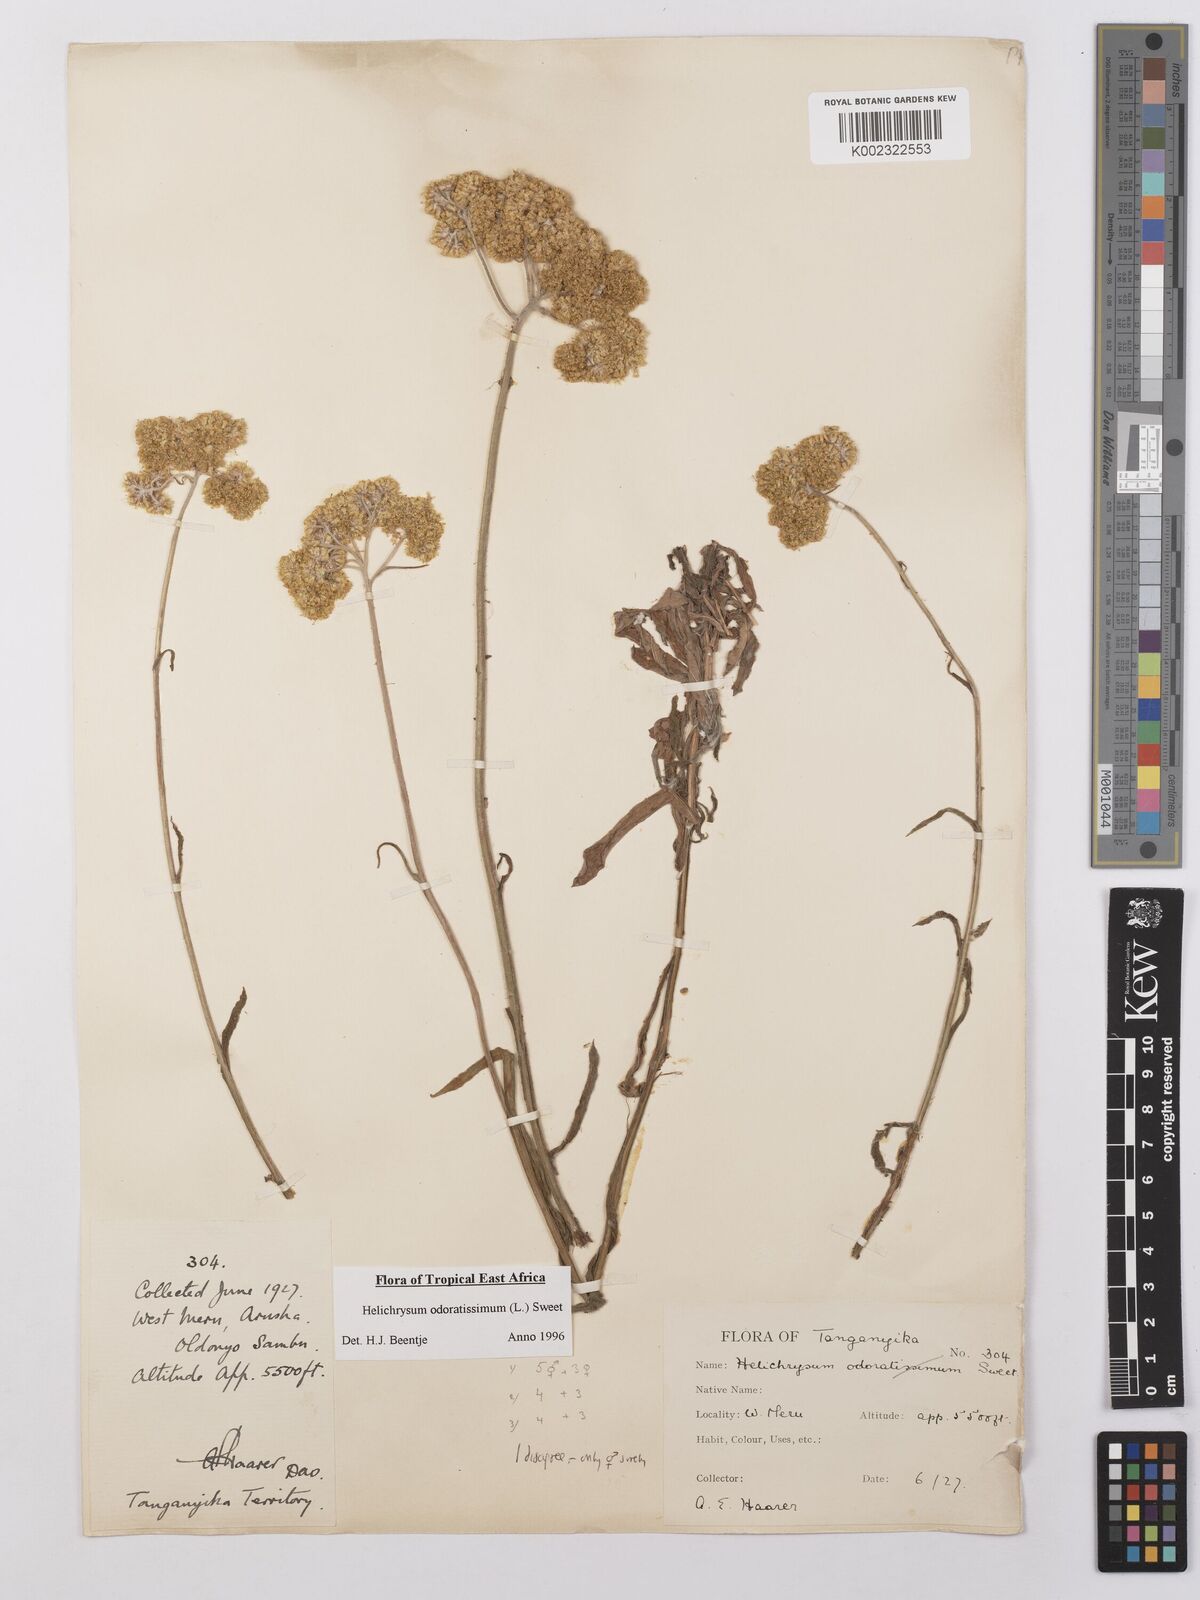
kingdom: Plantae
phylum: Tracheophyta
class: Magnoliopsida
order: Asterales
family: Asteraceae
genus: Helichrysum
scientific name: Helichrysum stenopterum
